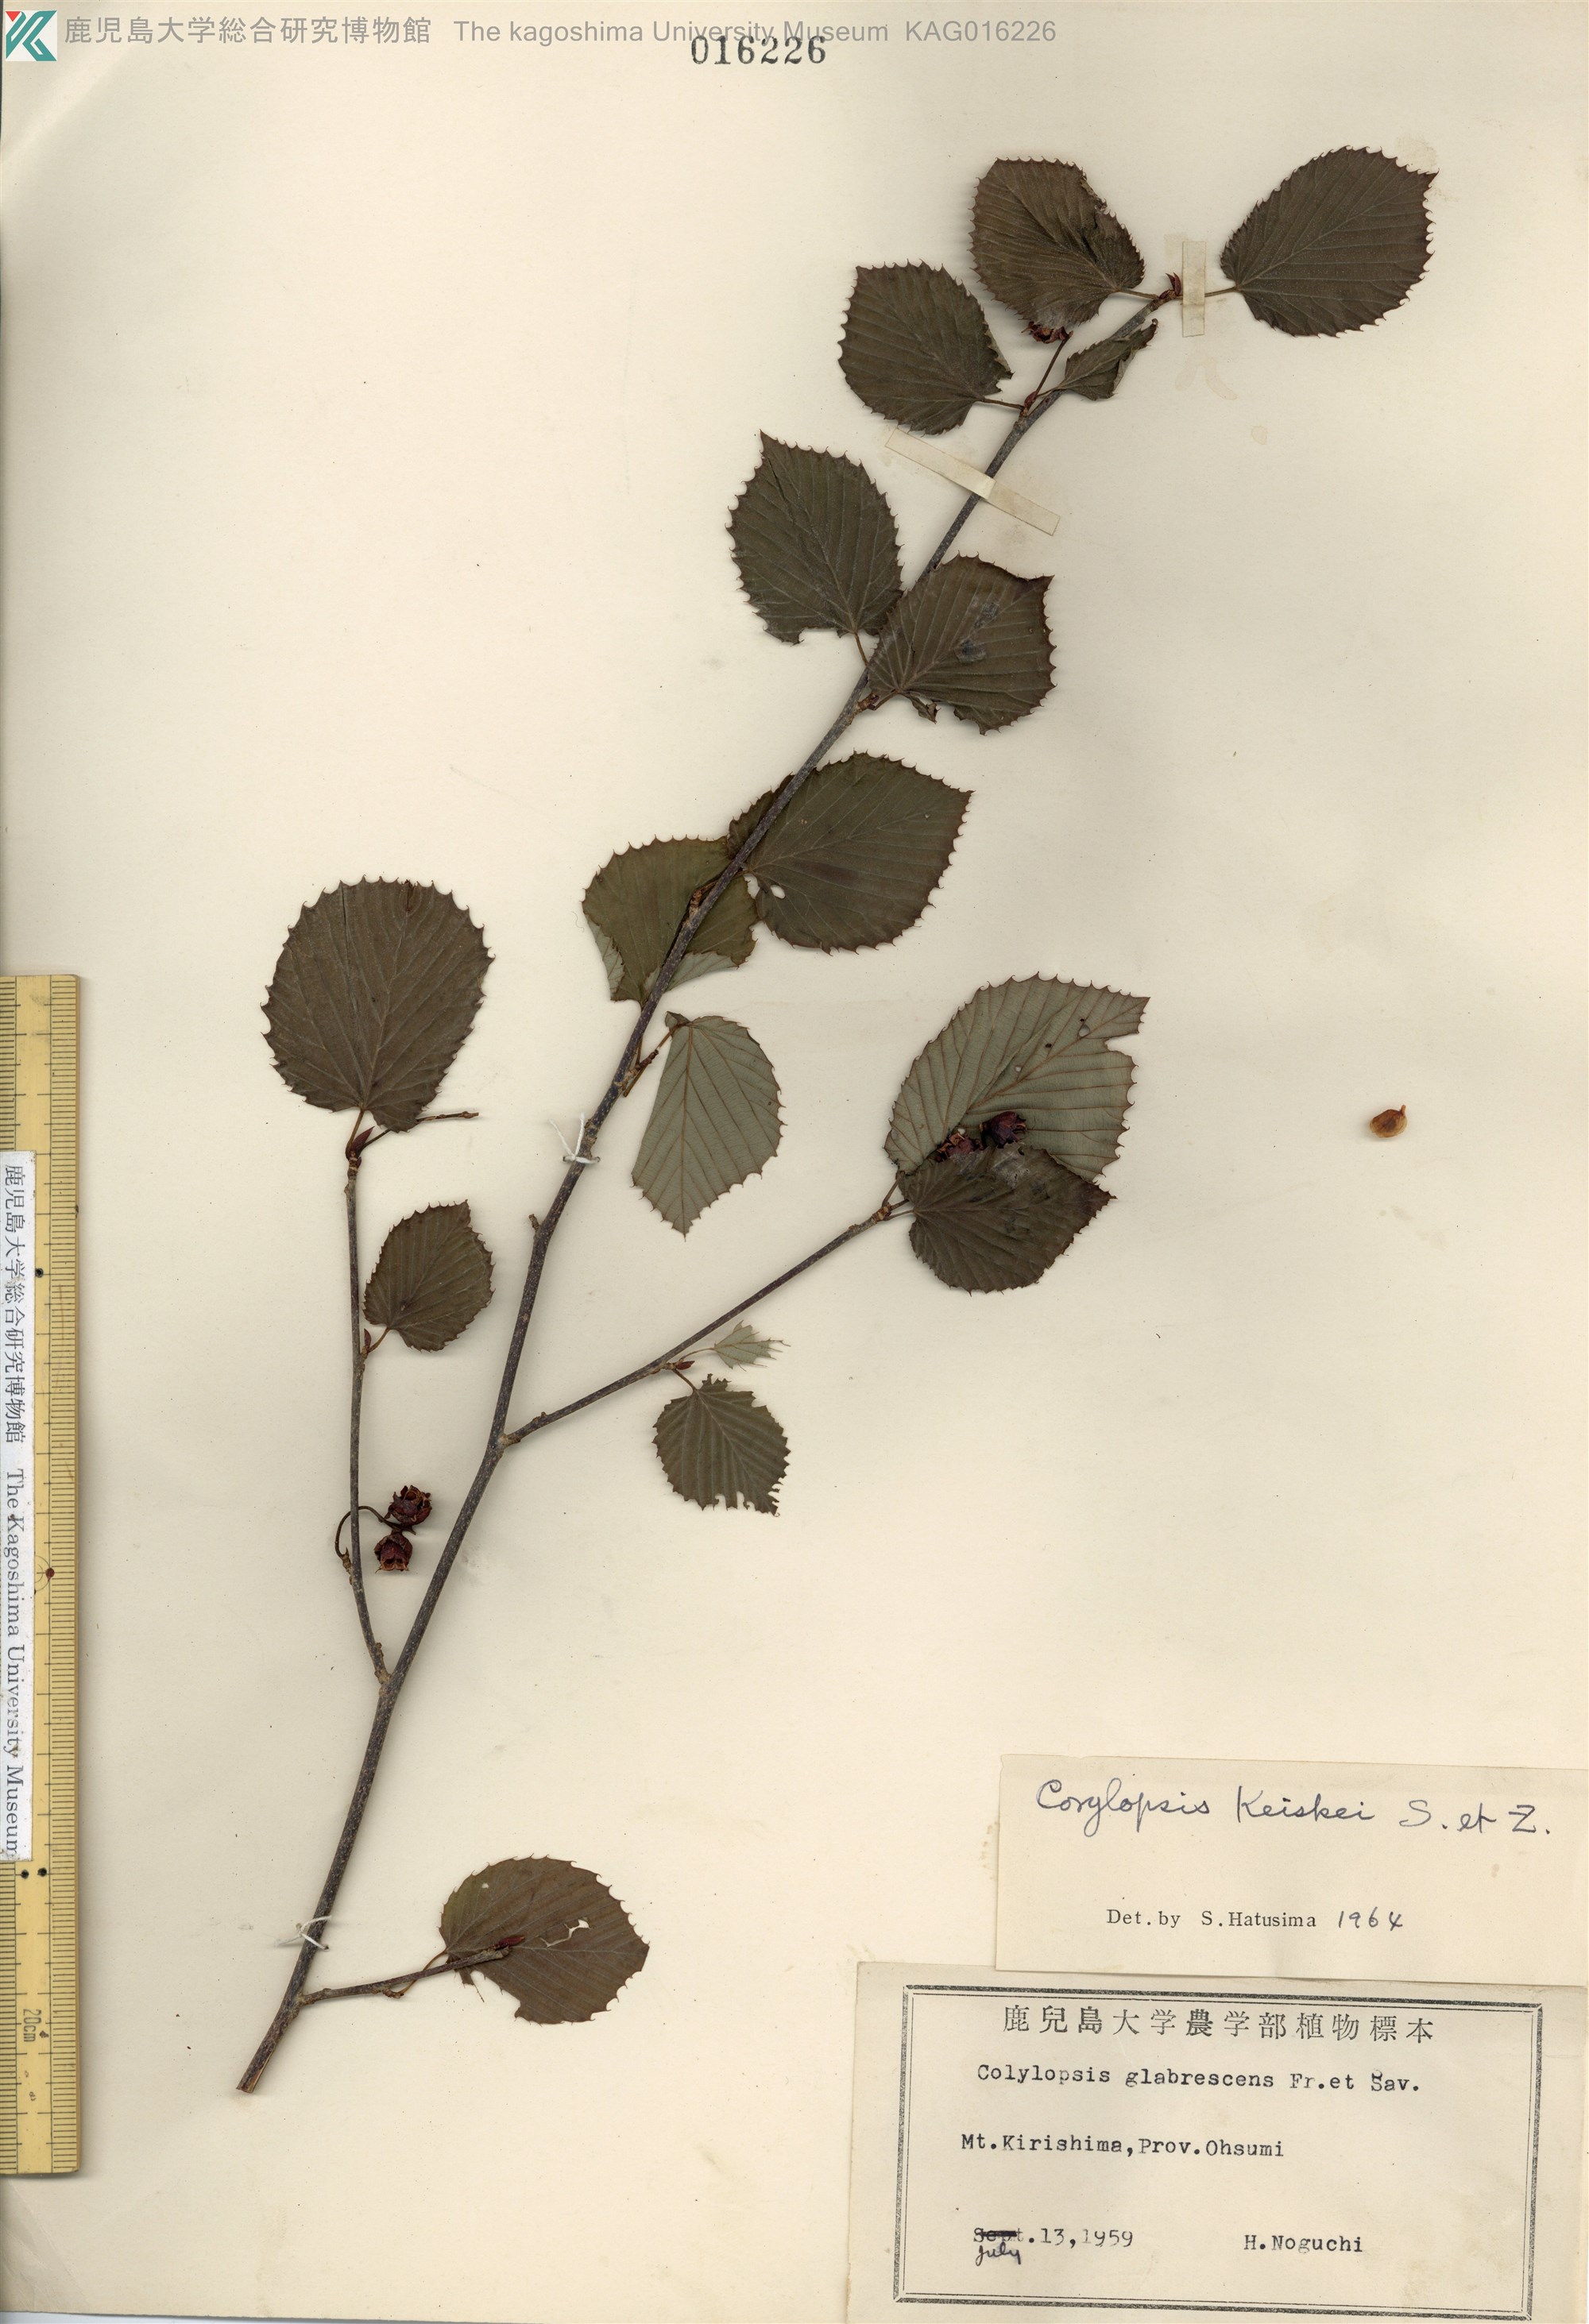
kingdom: Plantae
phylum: Tracheophyta
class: Magnoliopsida
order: Saxifragales
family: Hamamelidaceae
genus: Corylopsis
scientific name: Corylopsis glabrescens
